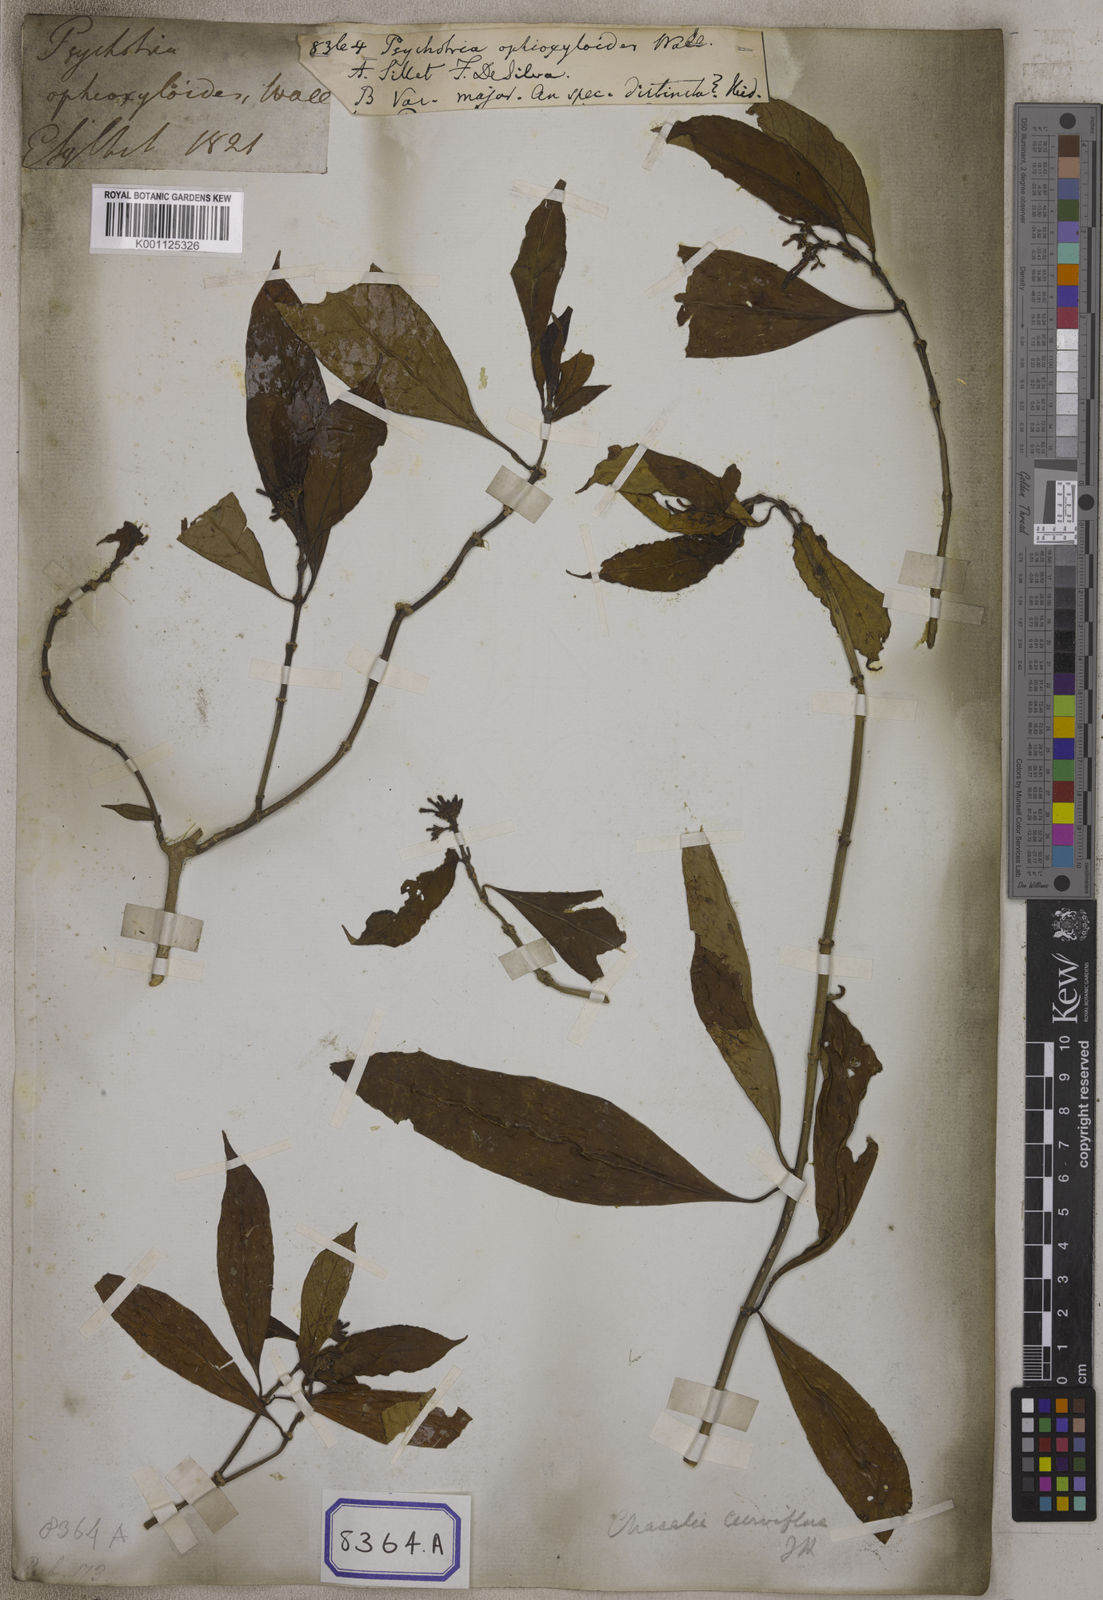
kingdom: Plantae
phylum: Tracheophyta
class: Magnoliopsida
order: Gentianales
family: Rubiaceae
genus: Chassalia
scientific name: Chassalia curviflora
